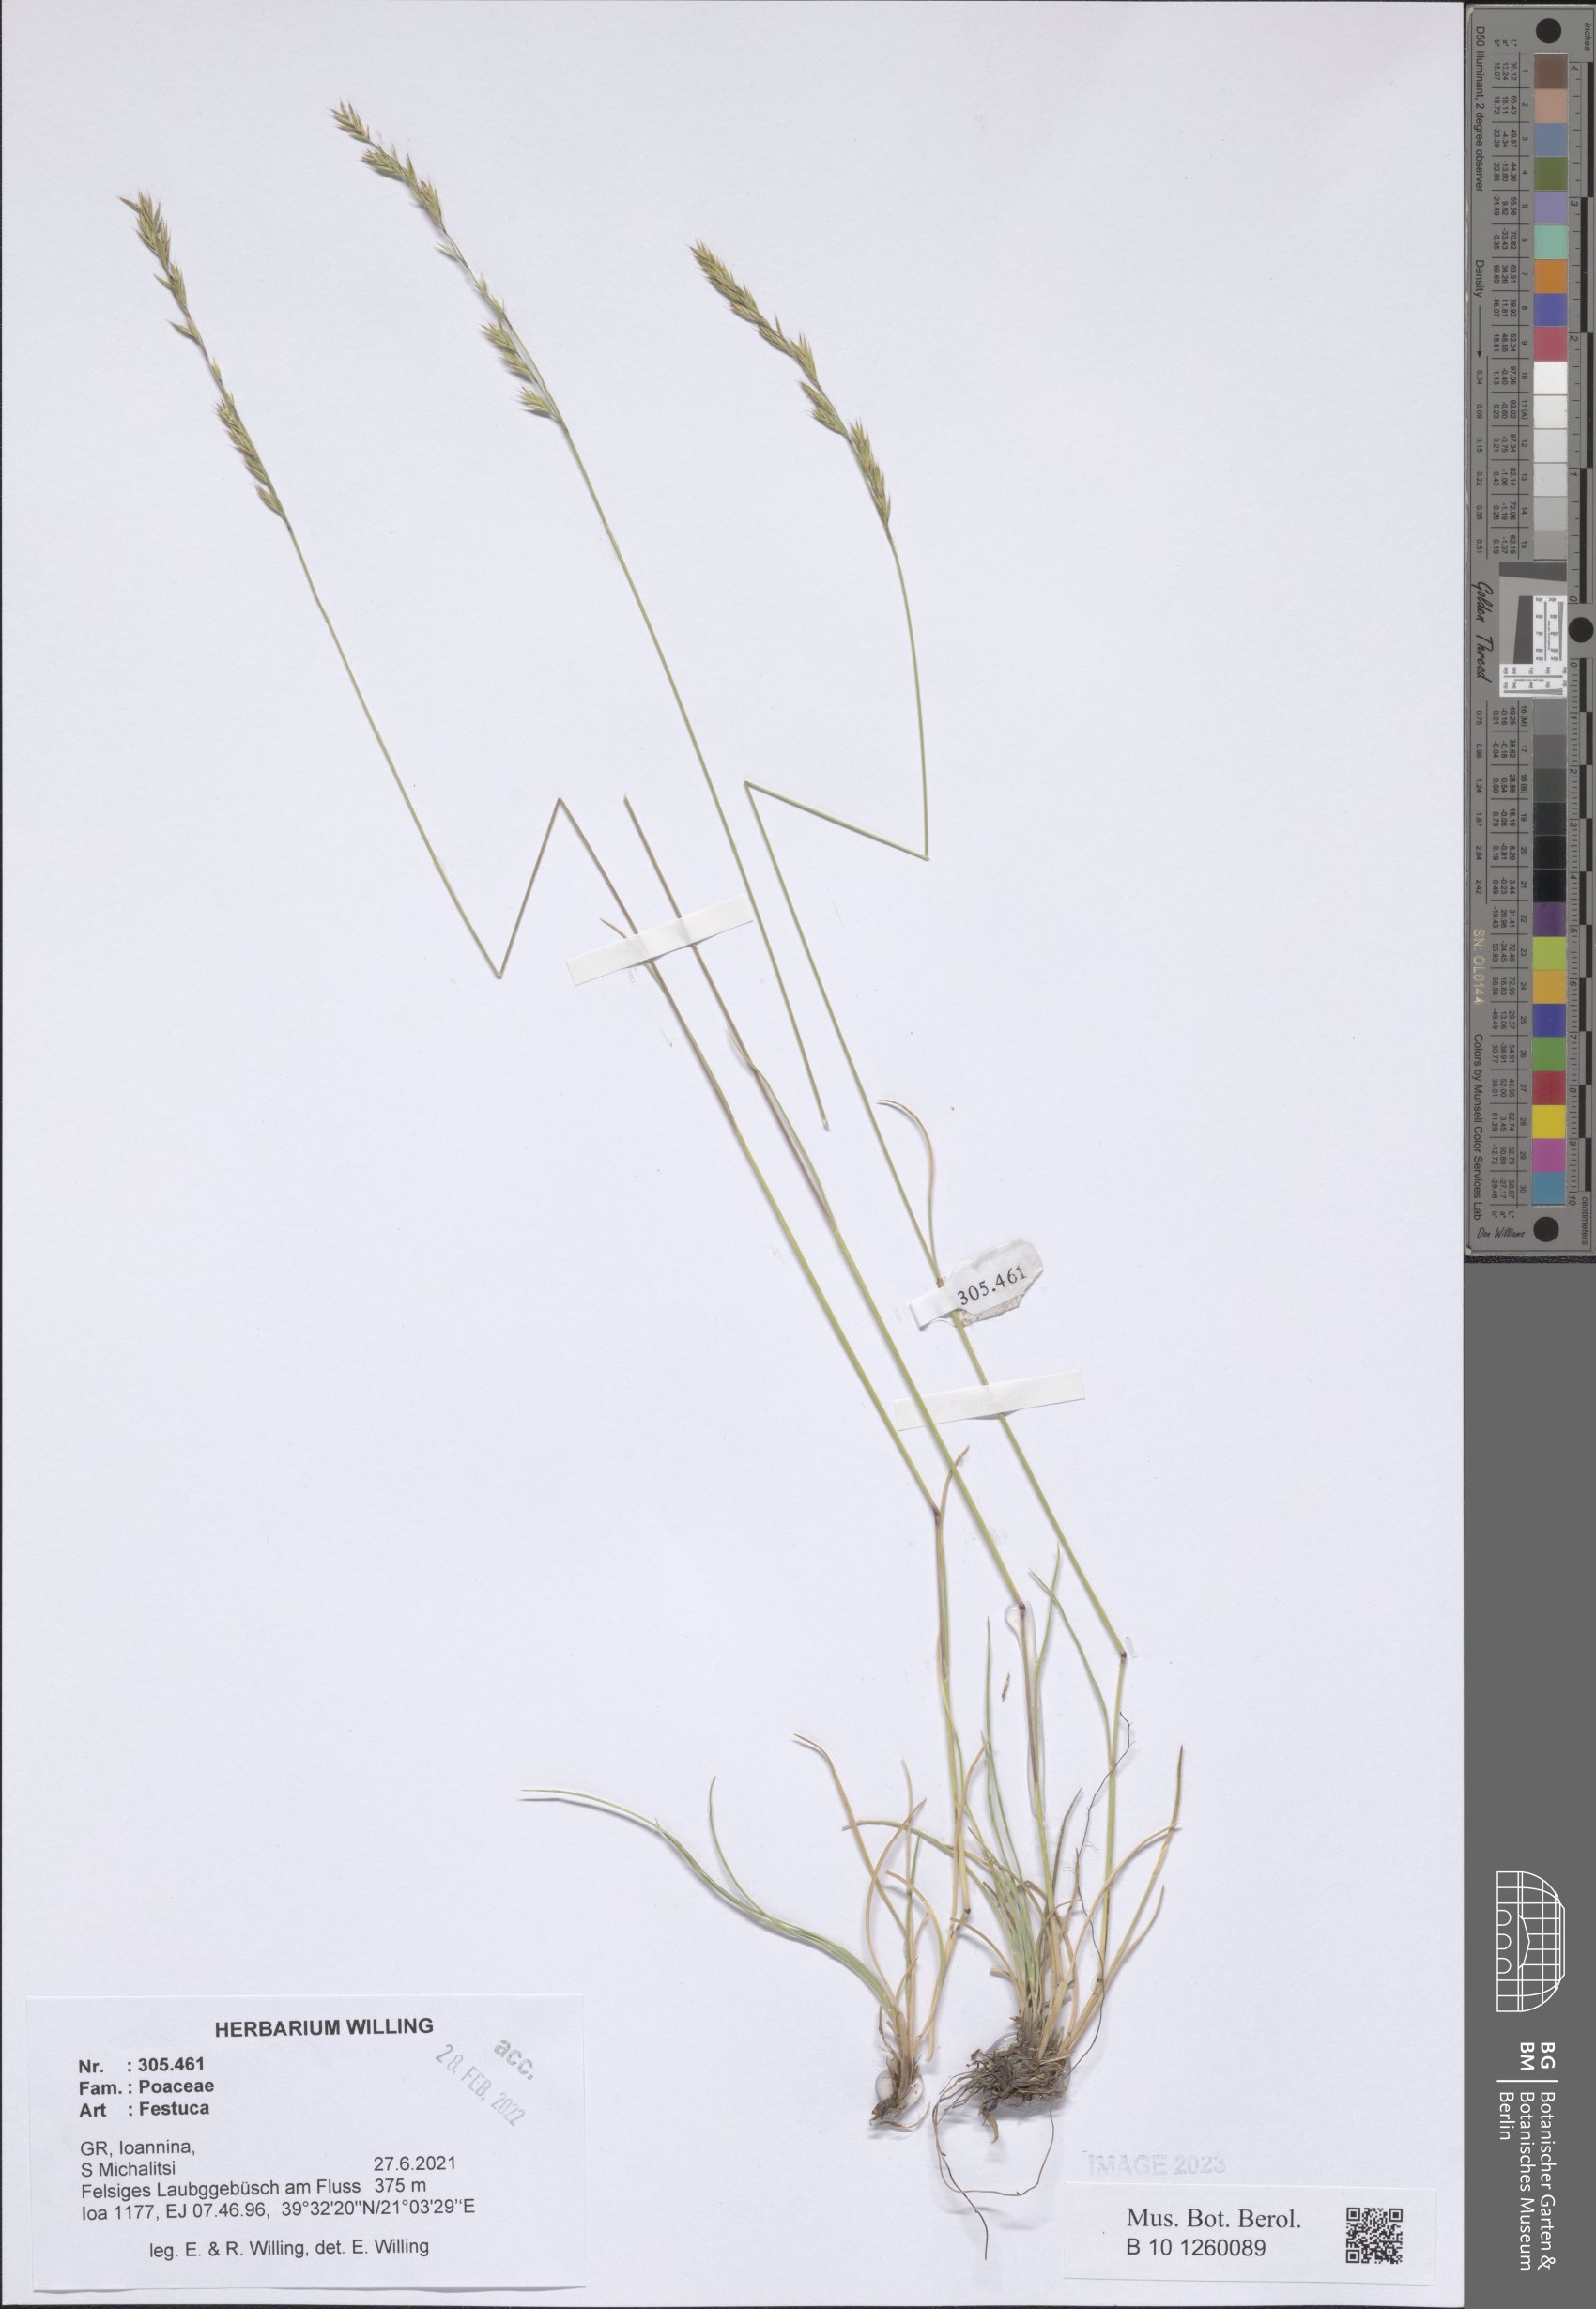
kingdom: Plantae
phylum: Tracheophyta
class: Liliopsida
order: Poales
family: Poaceae
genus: Festuca
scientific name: Festuca
